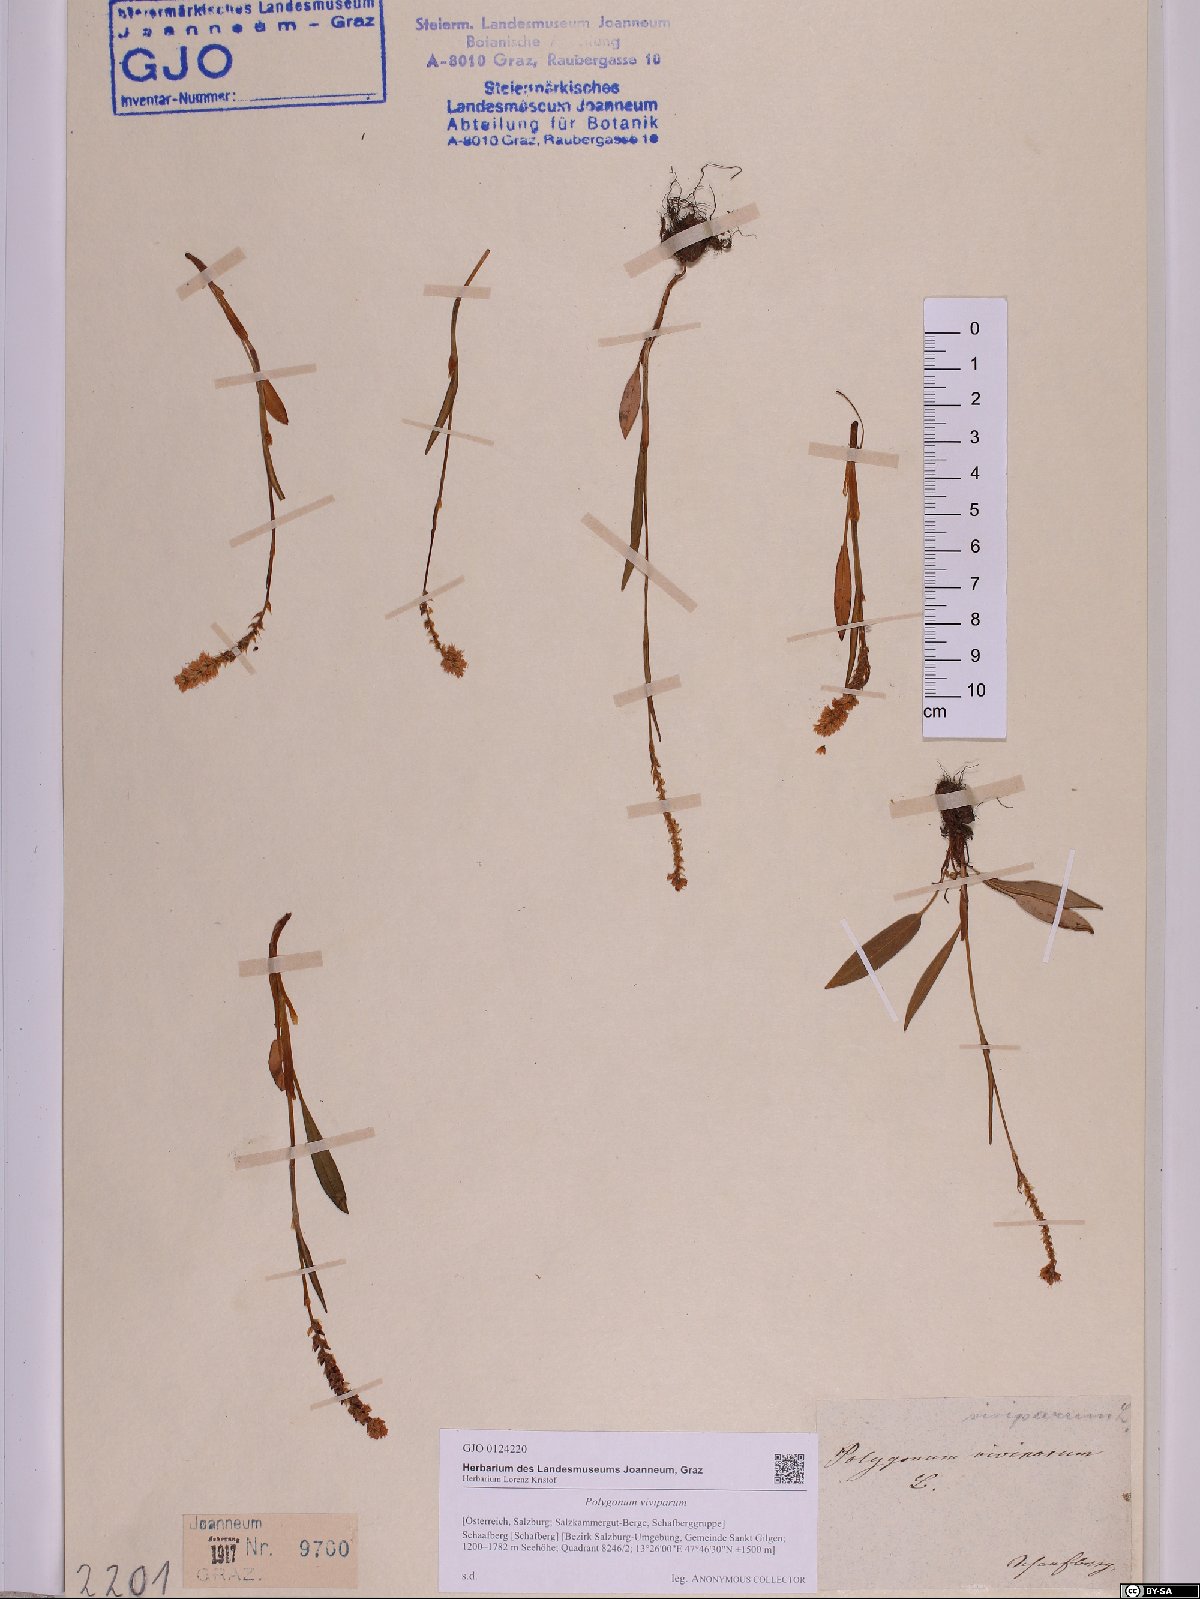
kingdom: Plantae
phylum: Tracheophyta
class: Magnoliopsida
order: Caryophyllales
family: Polygonaceae
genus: Bistorta
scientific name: Bistorta vivipara
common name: Alpine bistort
